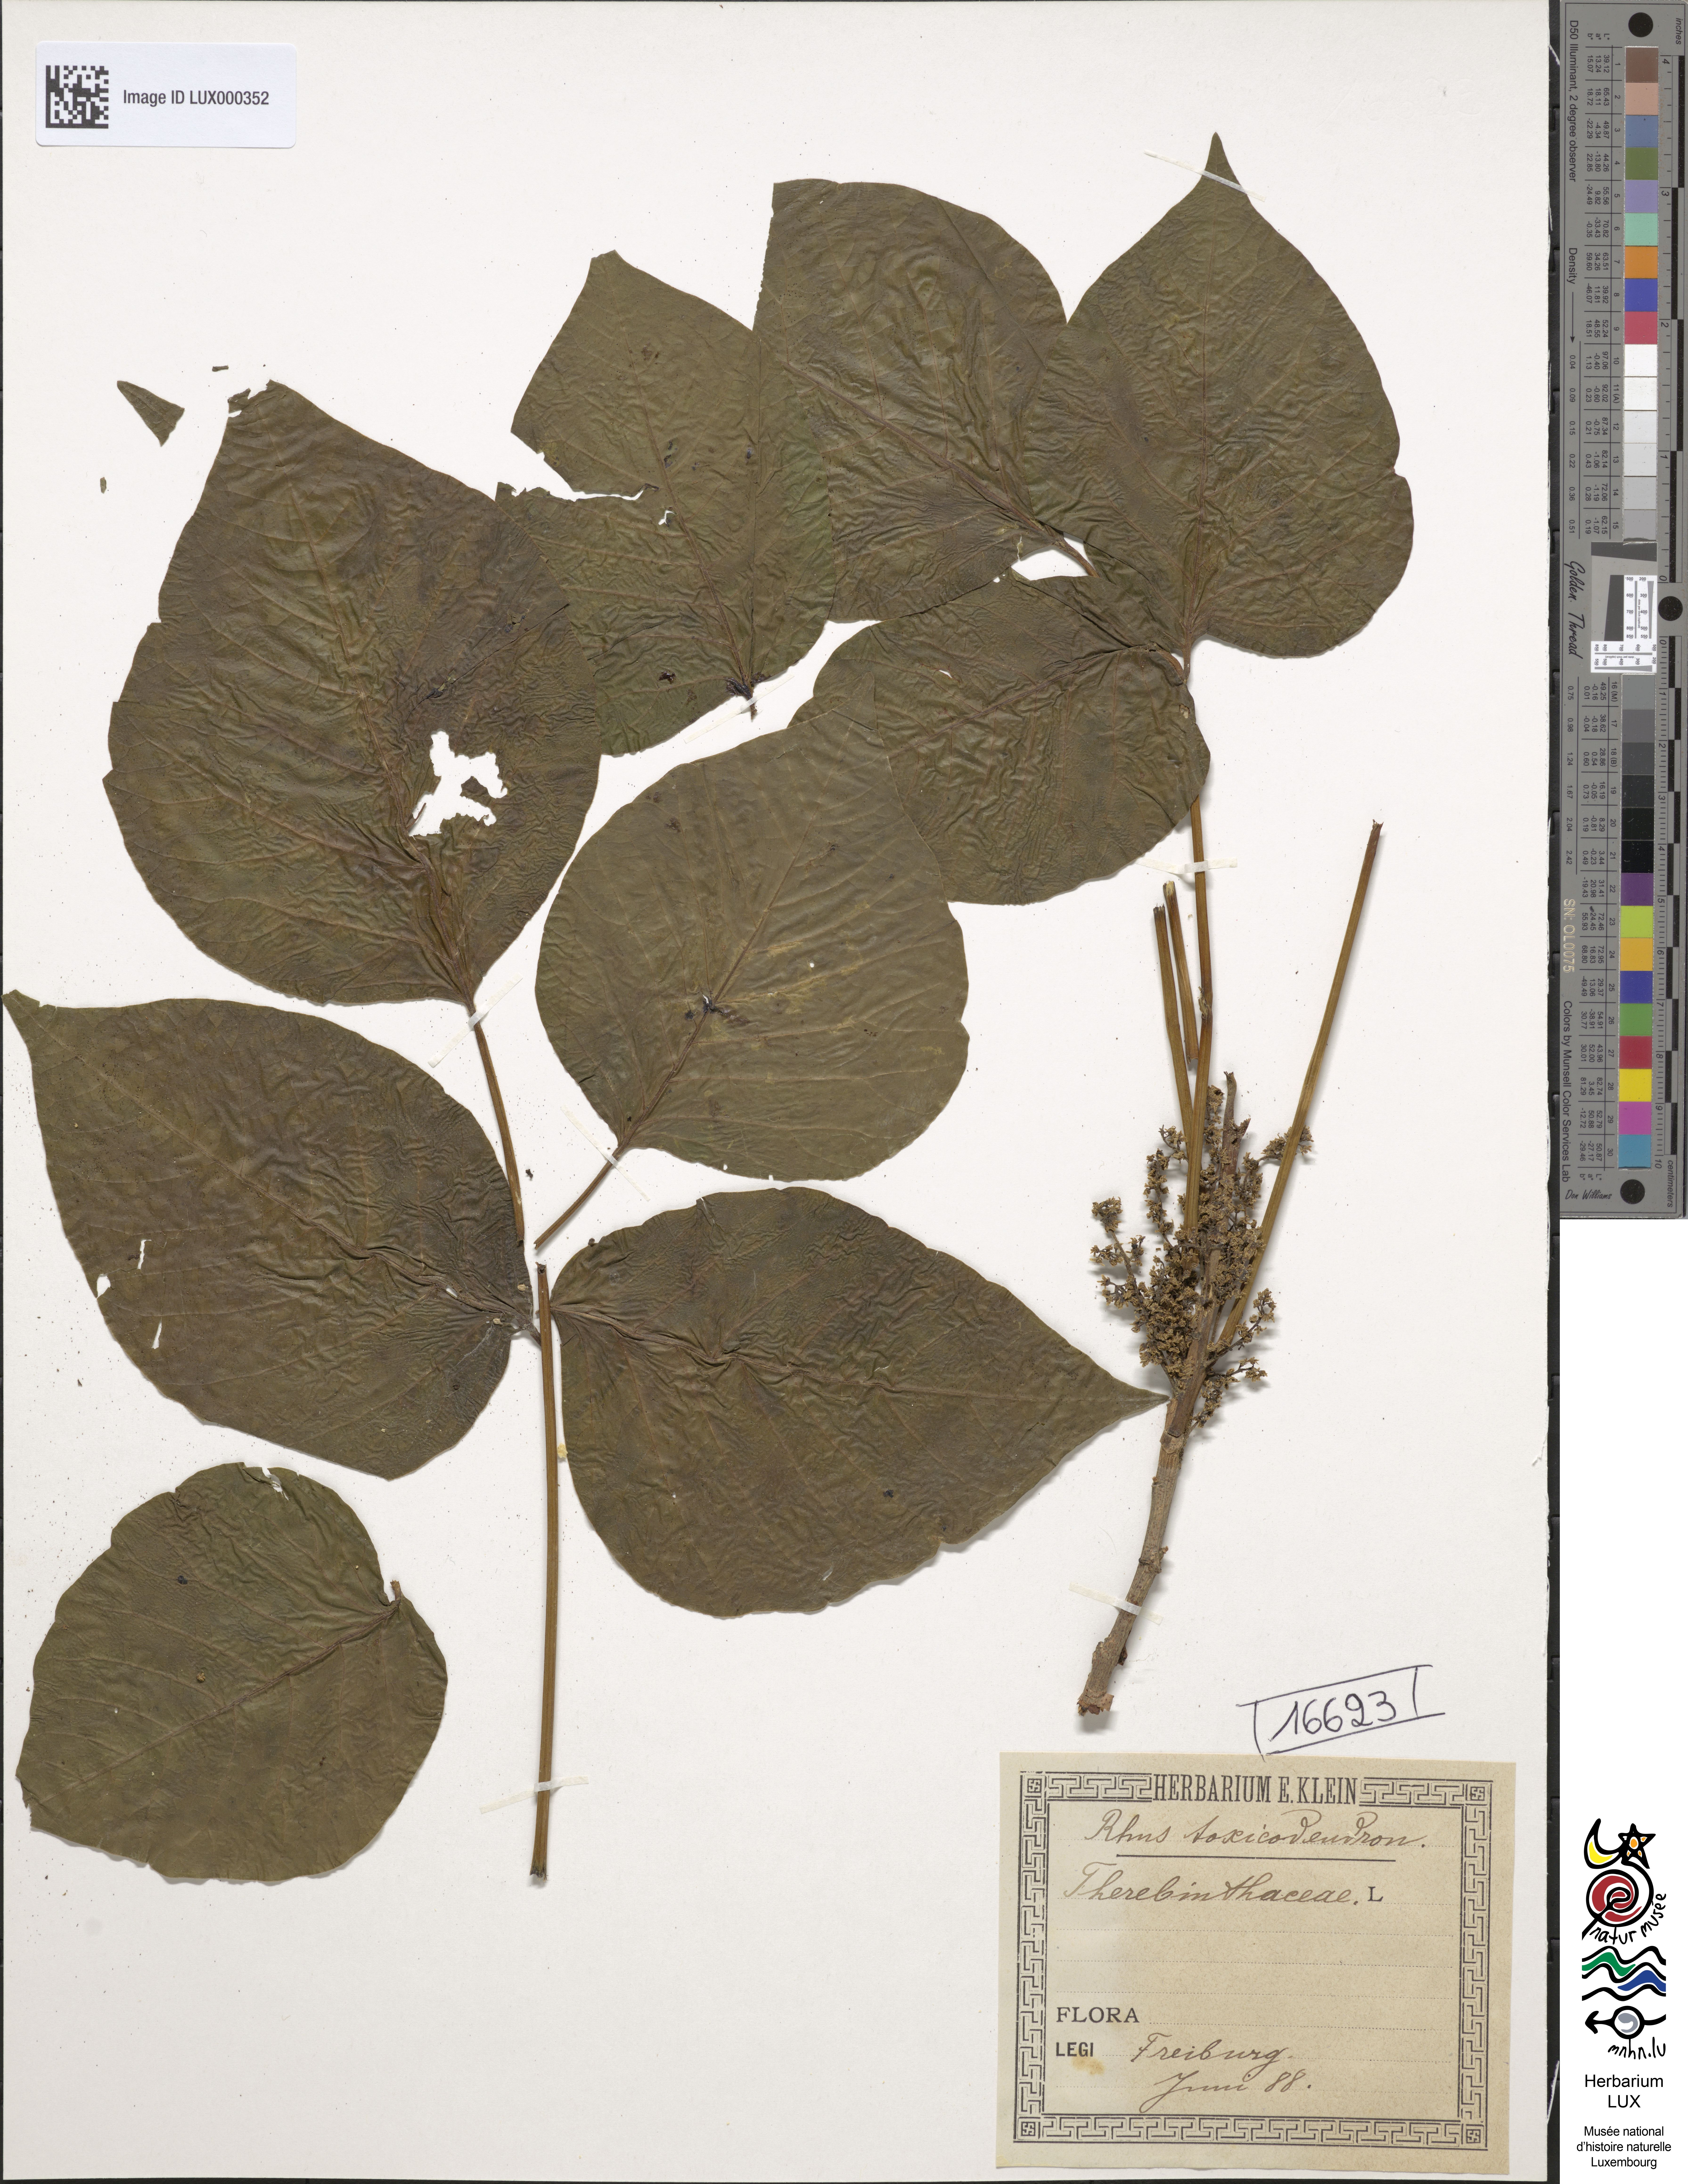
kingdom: Plantae
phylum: Tracheophyta
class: Magnoliopsida
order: Sapindales
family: Anacardiaceae
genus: Toxicodendron
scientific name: Toxicodendron pubescens
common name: Eastern poison-oak
